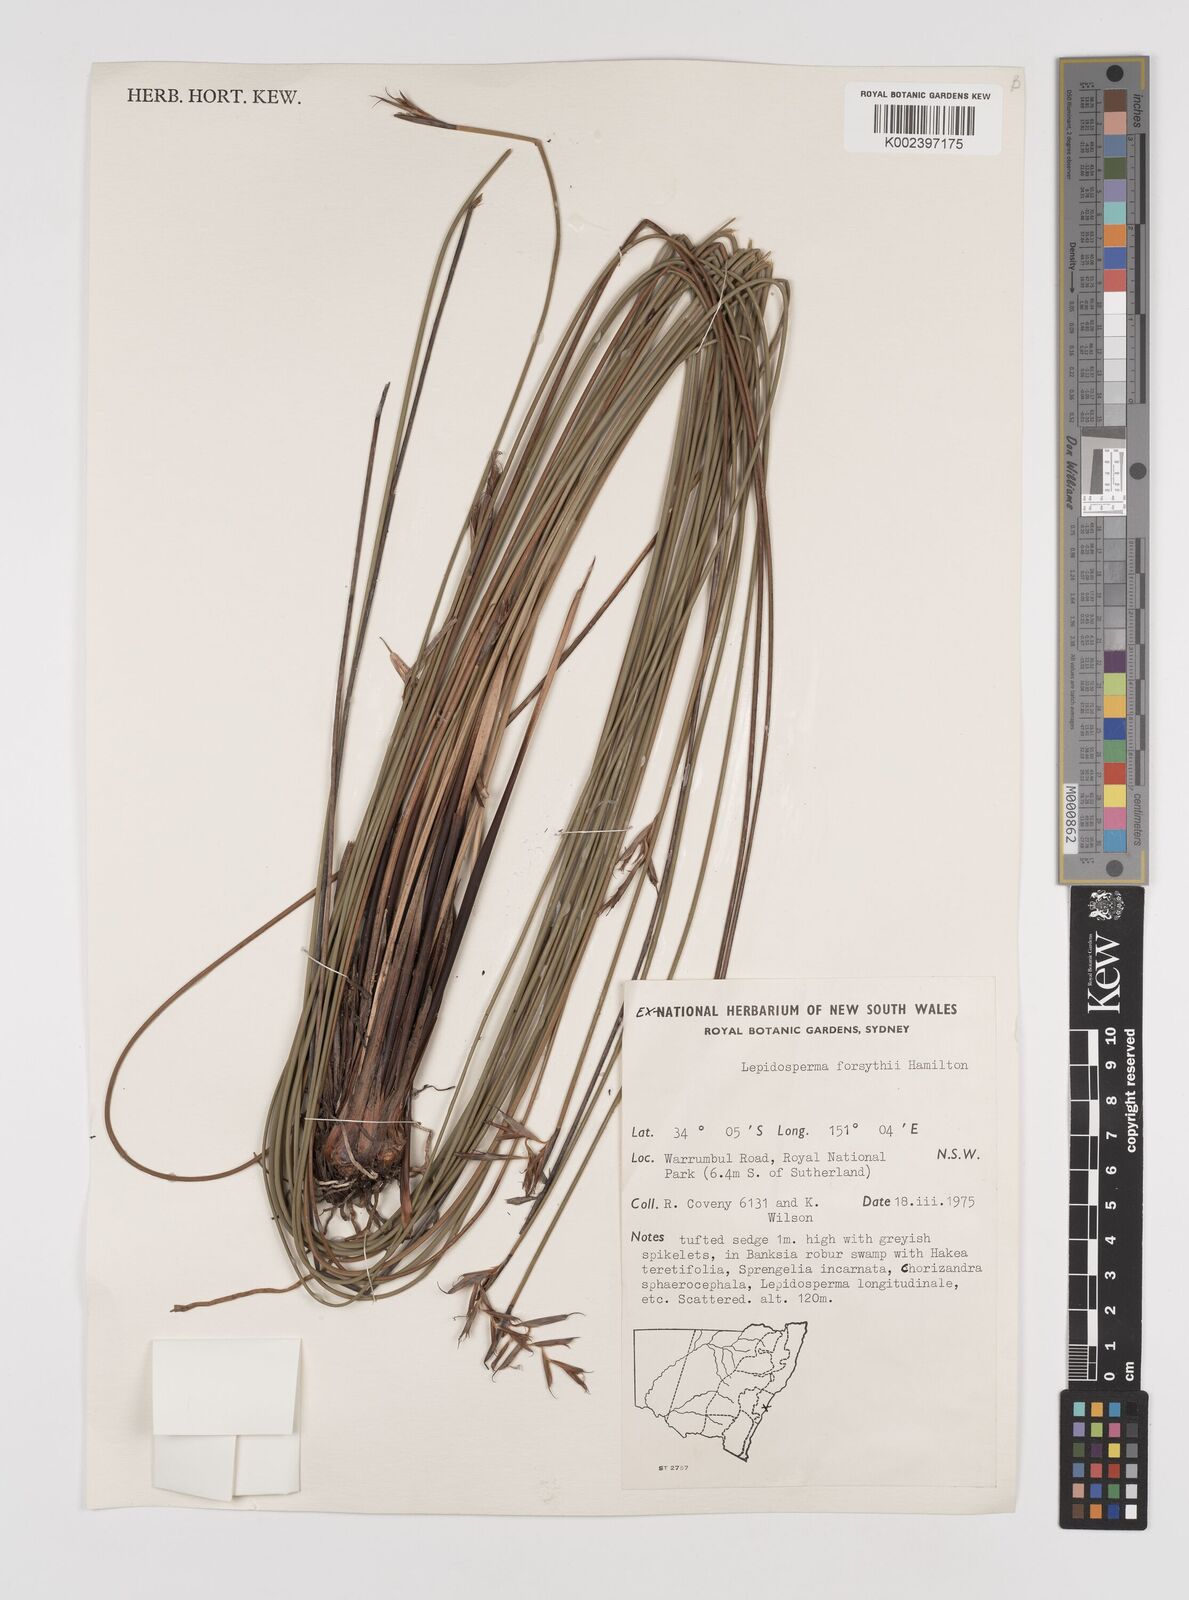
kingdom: Plantae
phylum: Tracheophyta
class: Liliopsida
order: Poales
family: Cyperaceae
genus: Lepidosperma
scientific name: Lepidosperma forsythii
